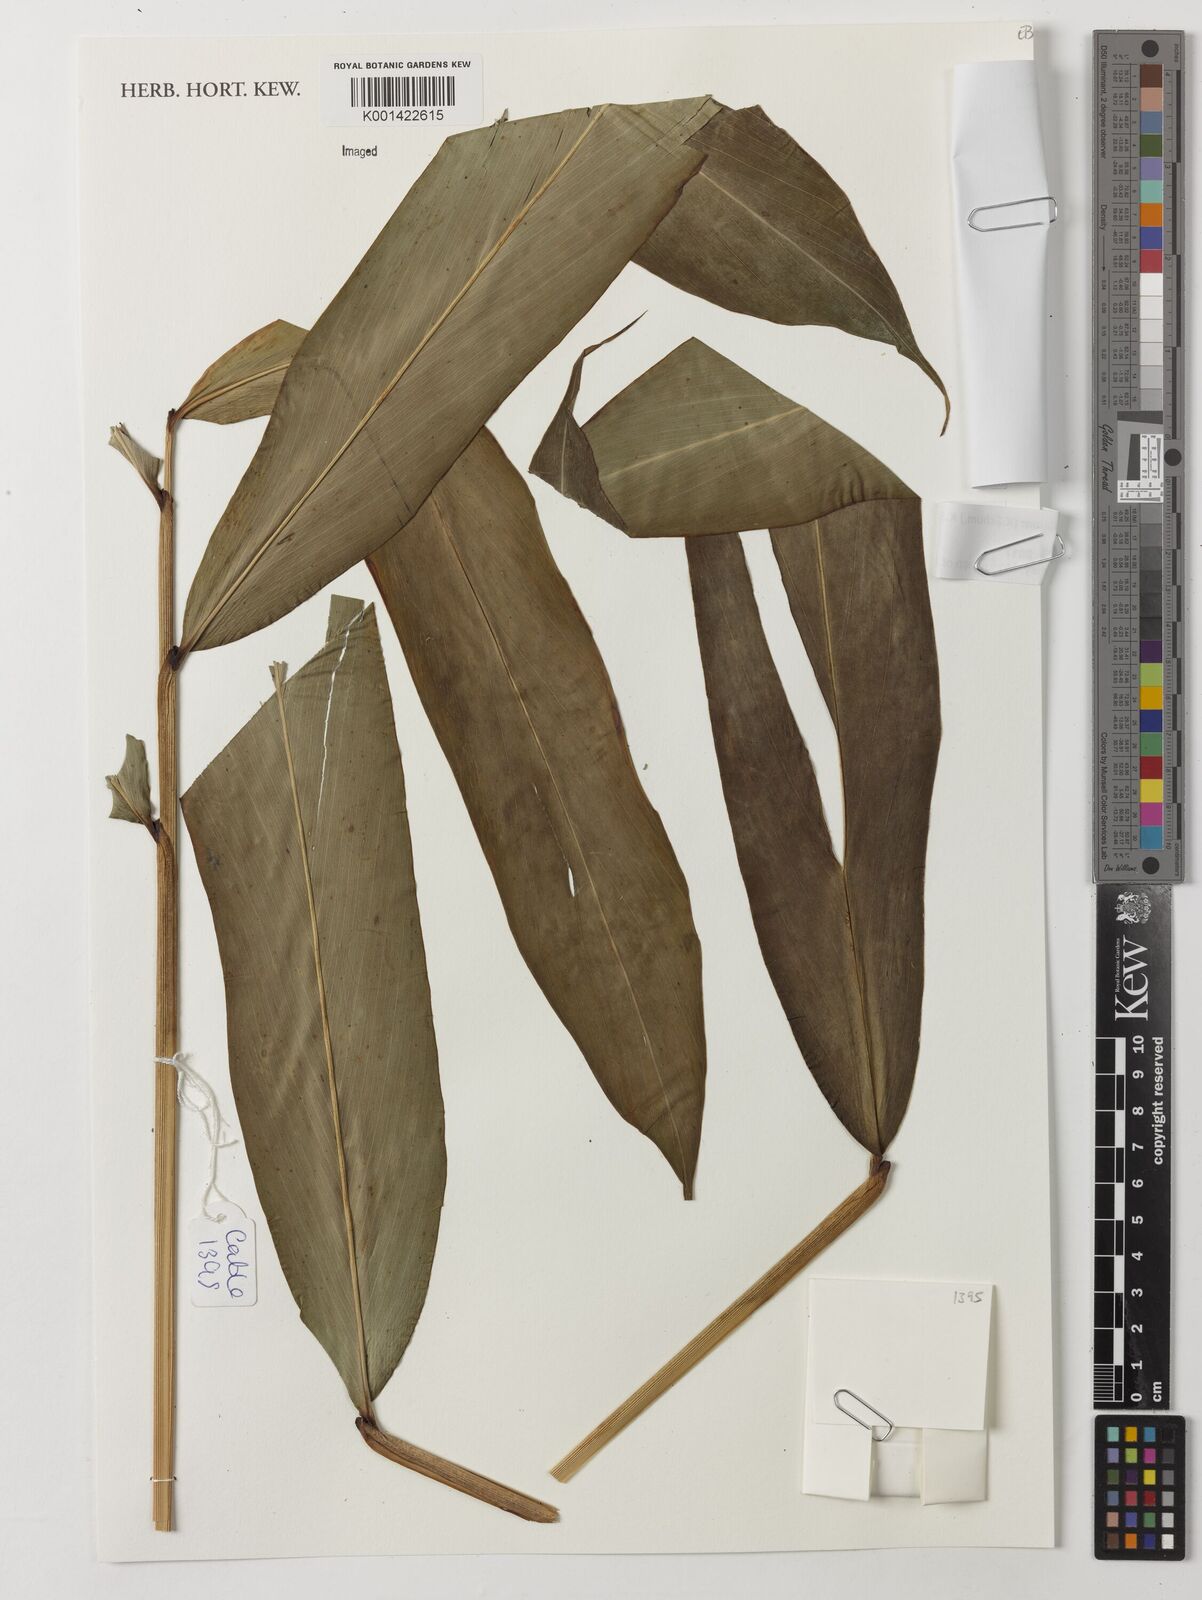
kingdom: Plantae
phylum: Tracheophyta
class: Liliopsida
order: Zingiberales
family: Zingiberaceae
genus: Aframomum
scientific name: Aframomum kayserianum
